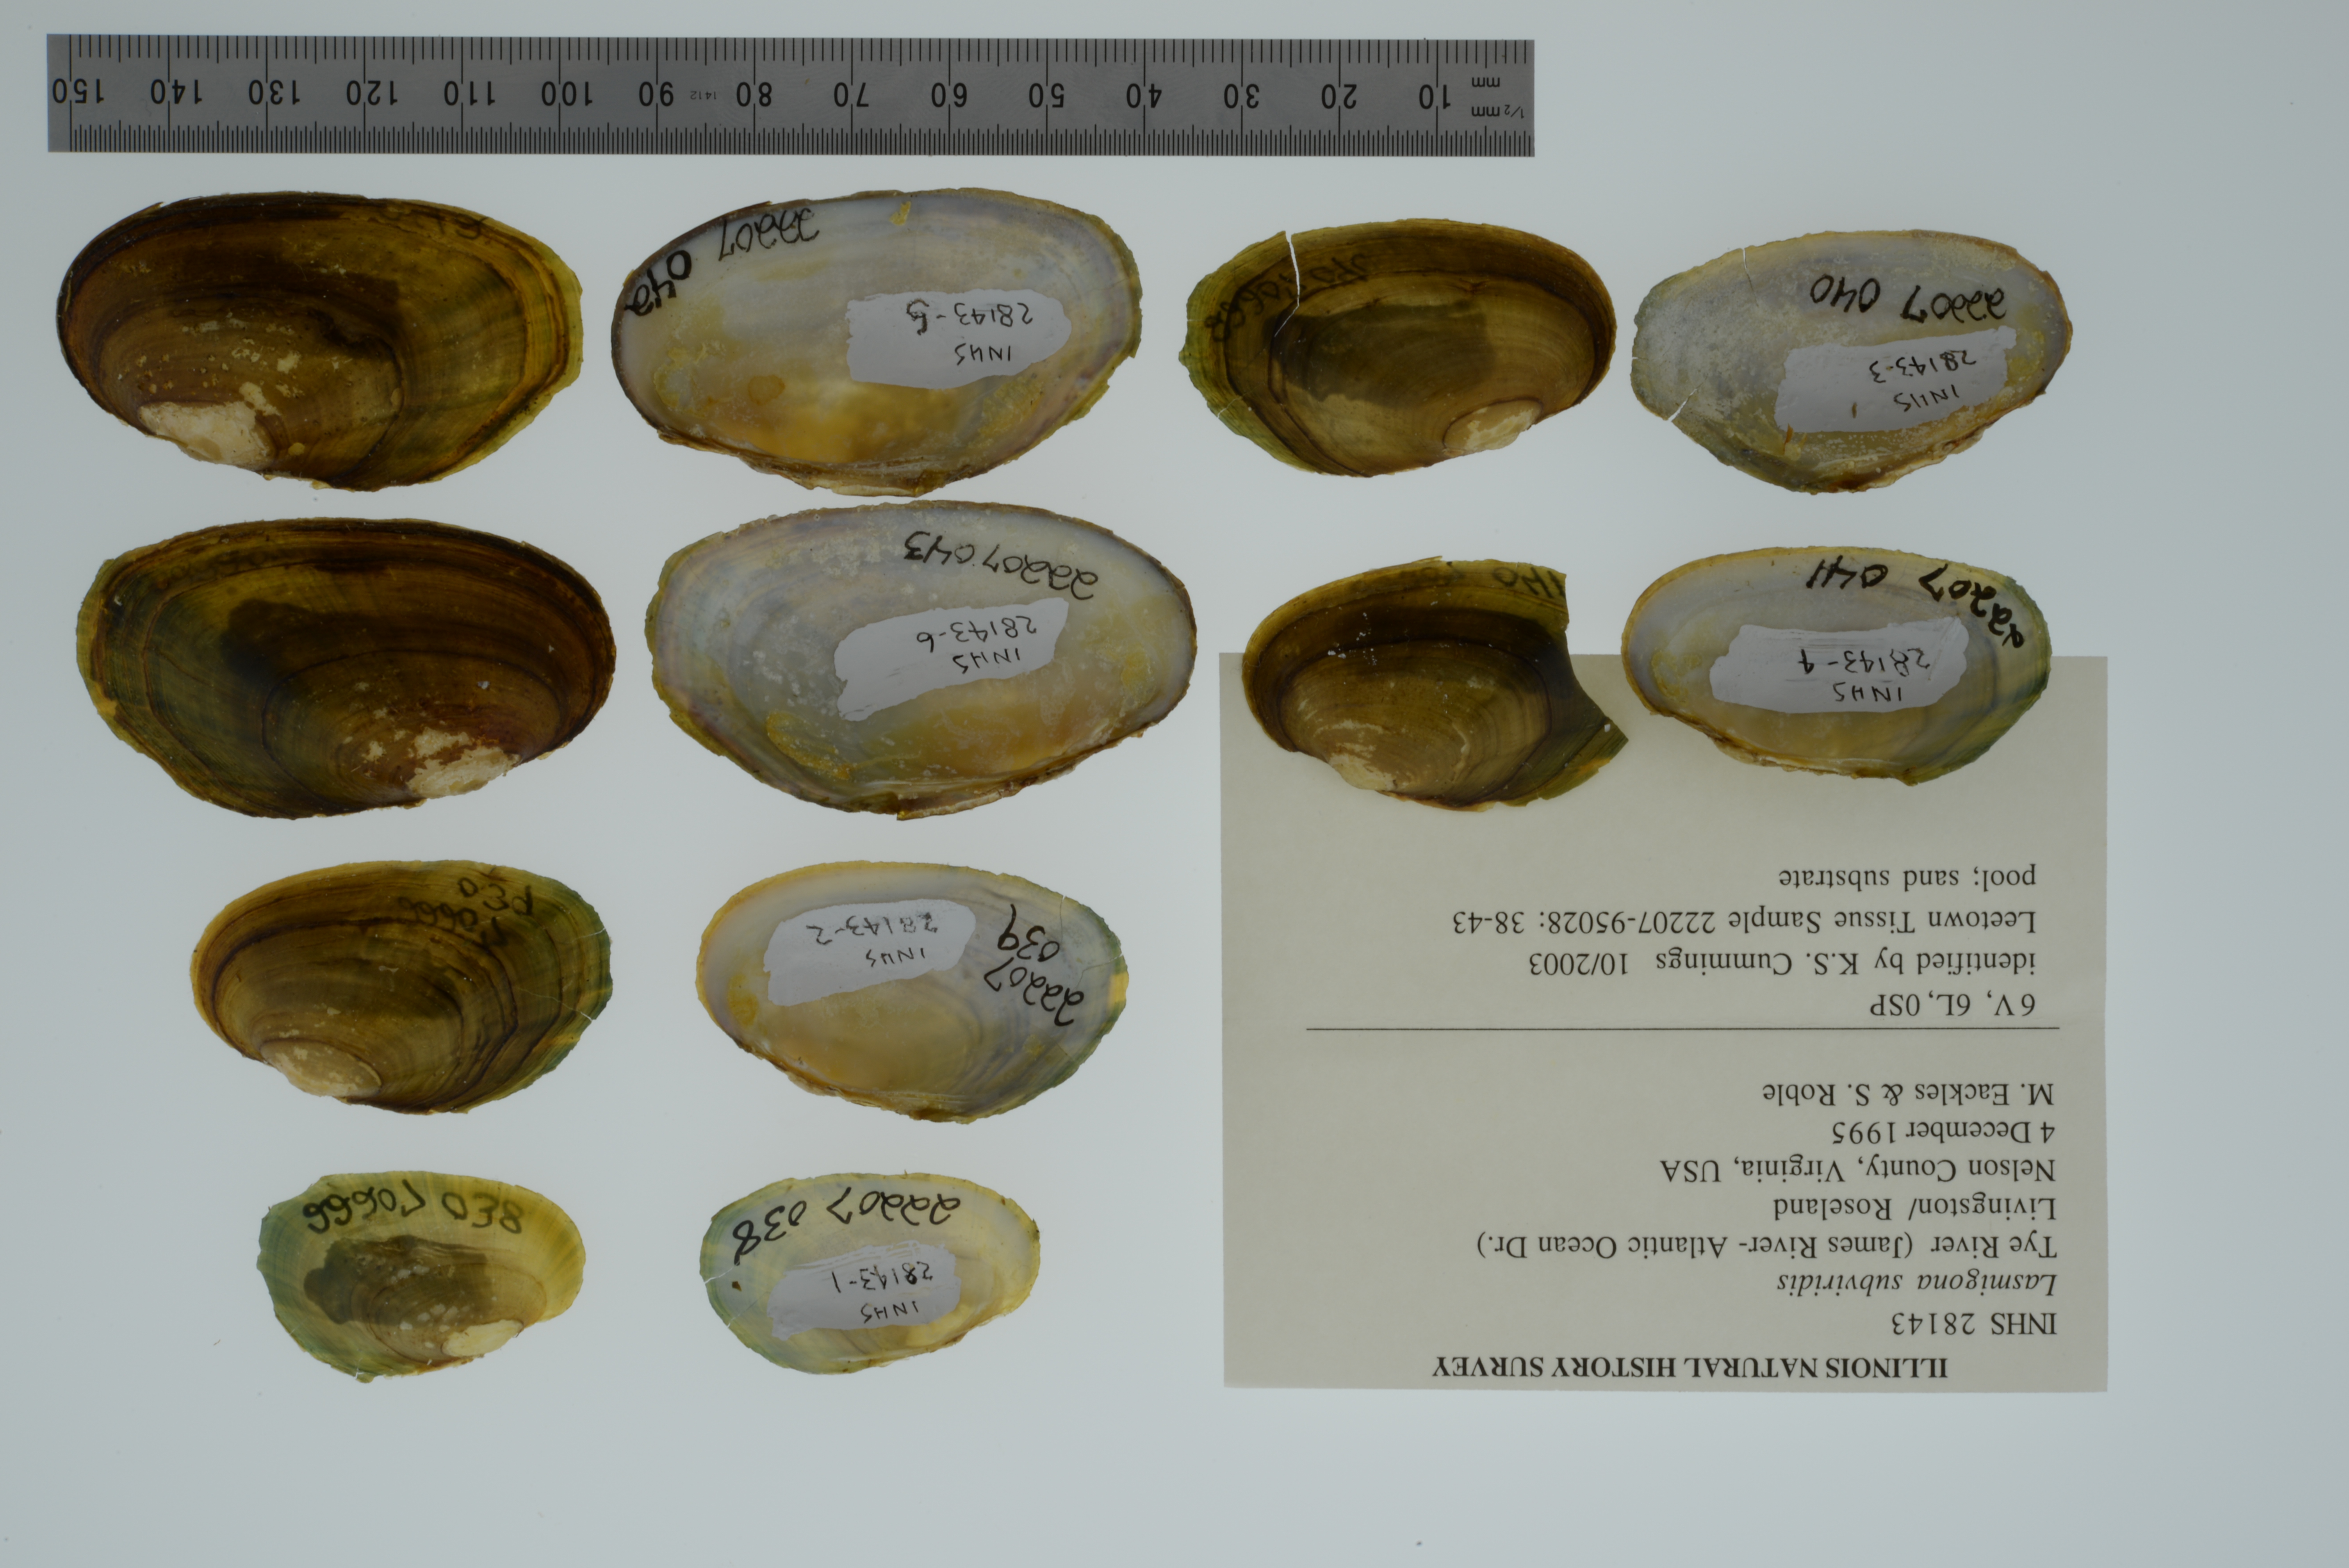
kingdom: Animalia
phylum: Mollusca
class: Bivalvia
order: Unionida
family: Unionidae
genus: Lasmigona
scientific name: Lasmigona subviridis
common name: Green floater
